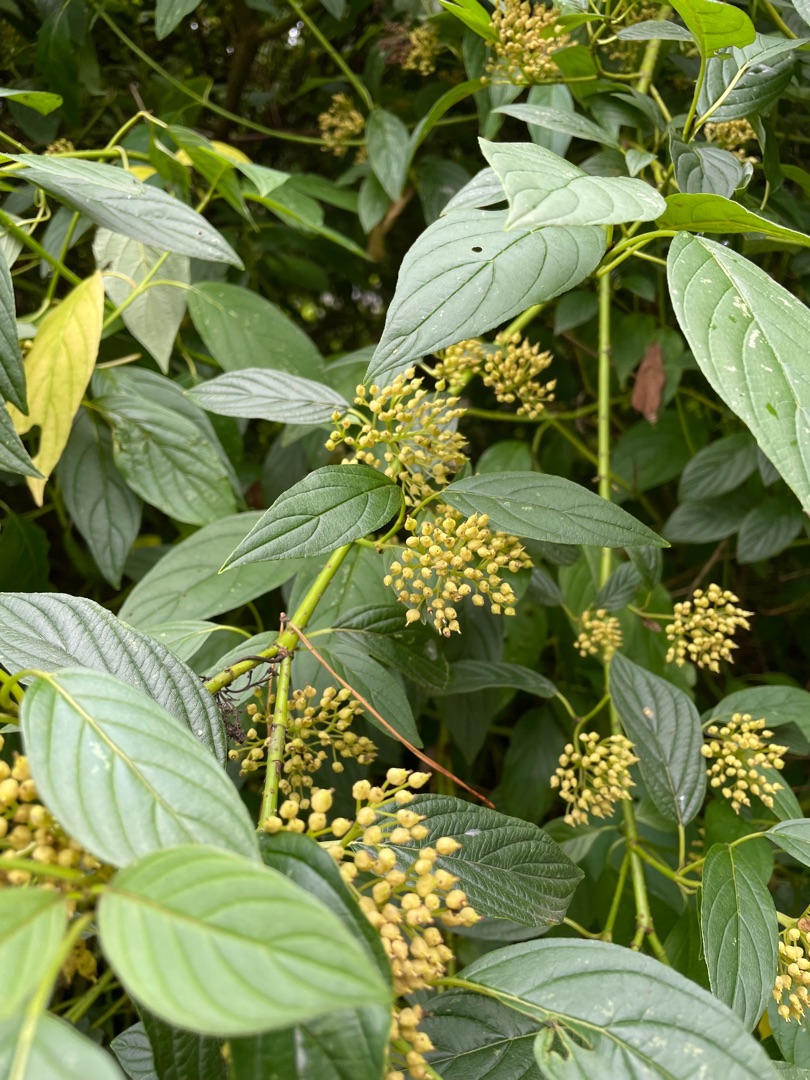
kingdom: Plantae
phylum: Tracheophyta
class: Magnoliopsida
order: Cornales
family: Cornaceae
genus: Cornus
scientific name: Cornus sericea
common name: Krybende kornel
